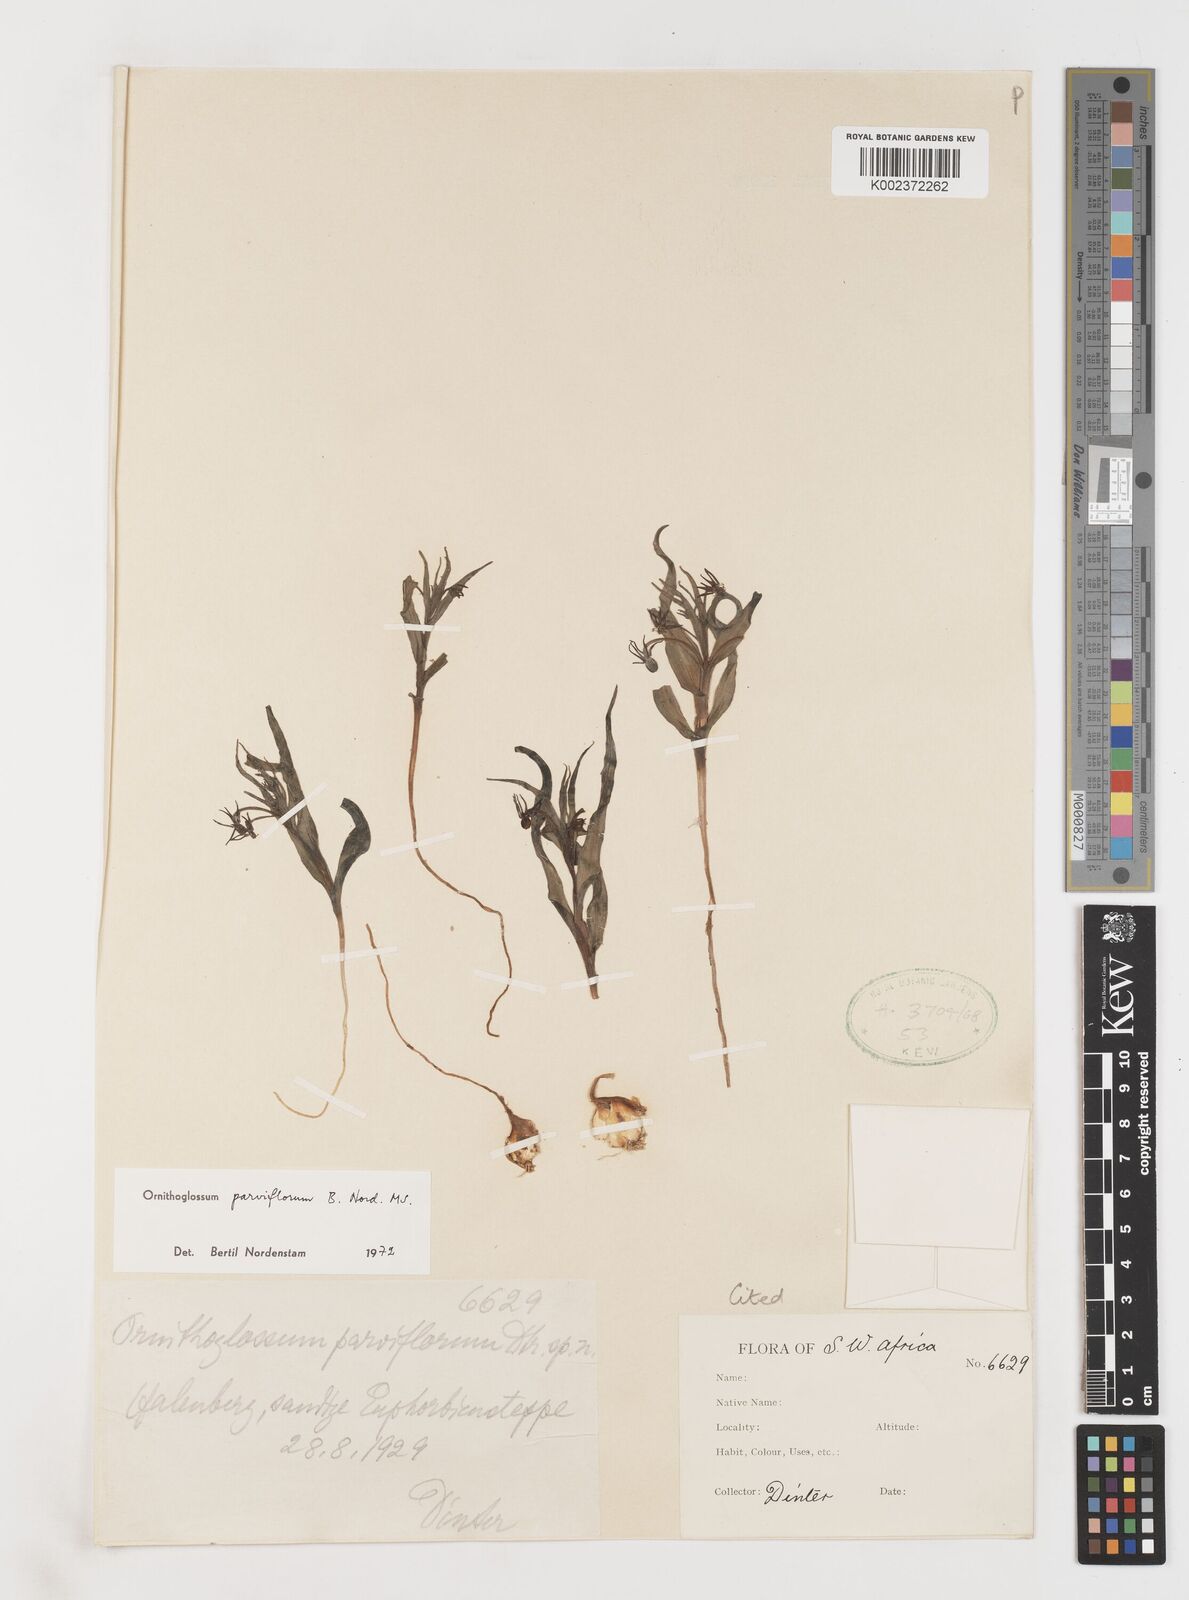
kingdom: Plantae
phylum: Tracheophyta
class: Liliopsida
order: Liliales
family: Colchicaceae
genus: Ornithoglossum
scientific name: Ornithoglossum parviflorum
